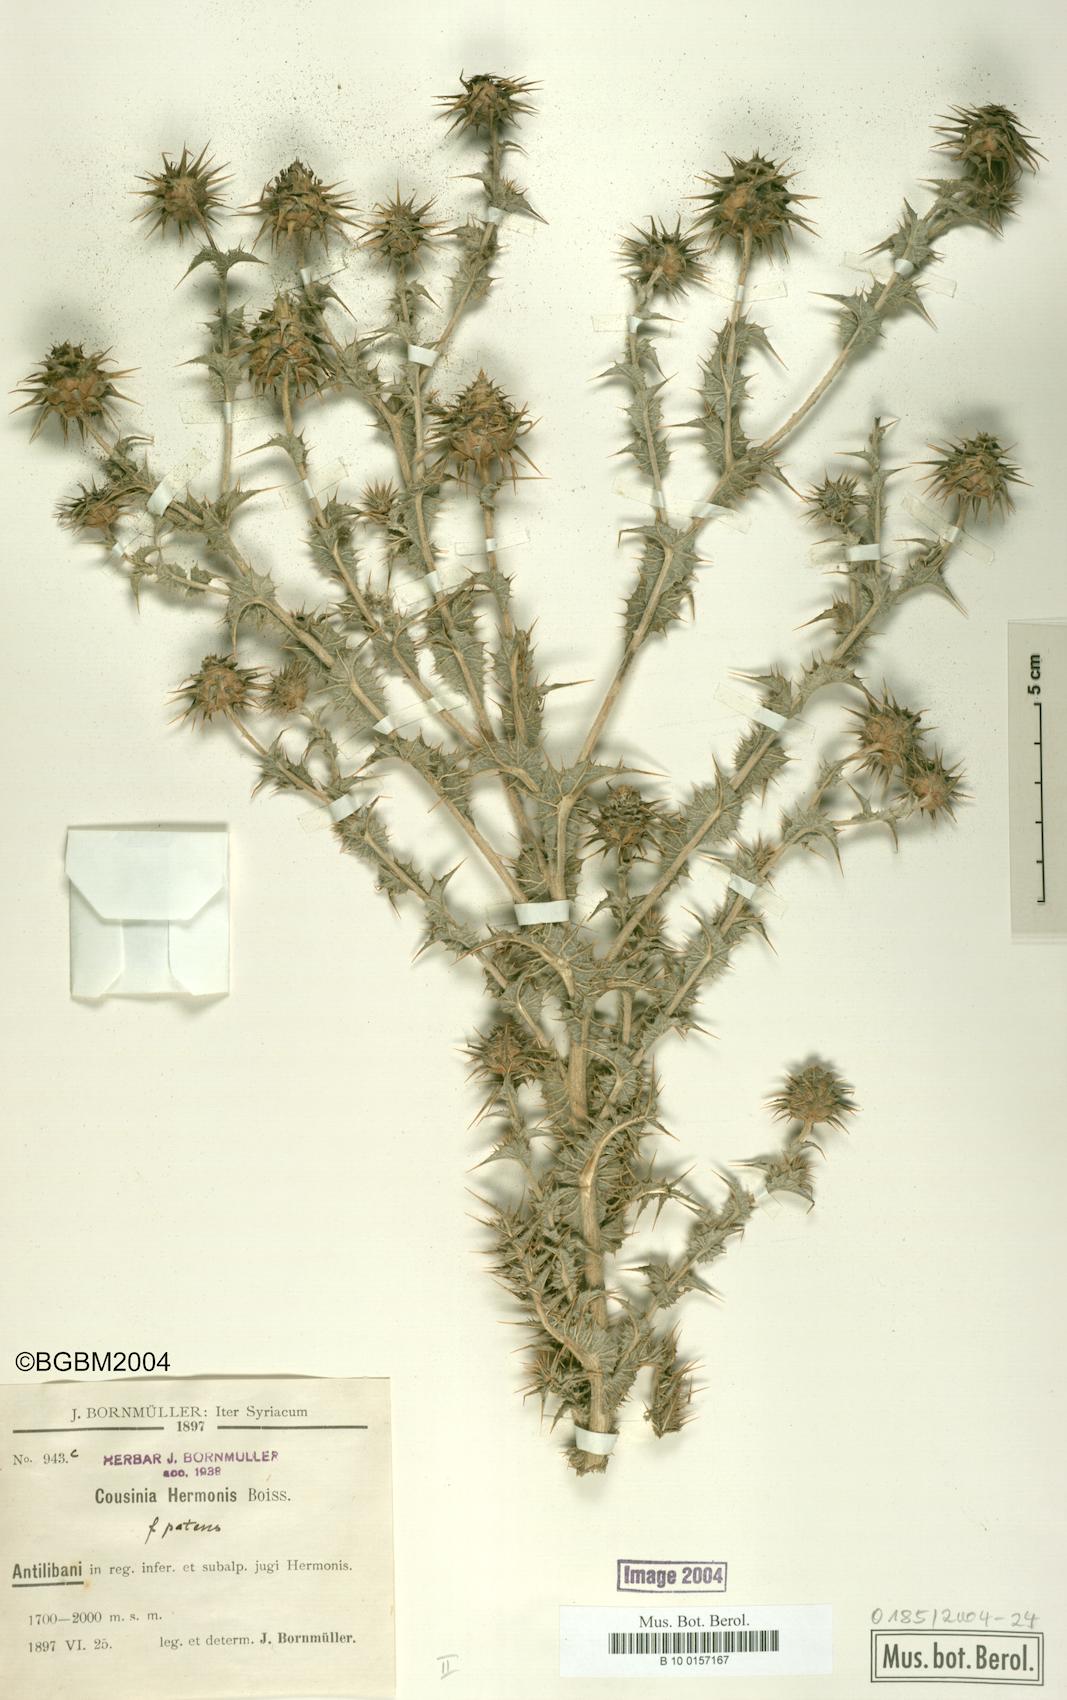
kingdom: Plantae
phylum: Tracheophyta
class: Magnoliopsida
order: Asterales
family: Asteraceae
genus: Cousinia
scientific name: Cousinia libanotica
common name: Lebanon cousinia
